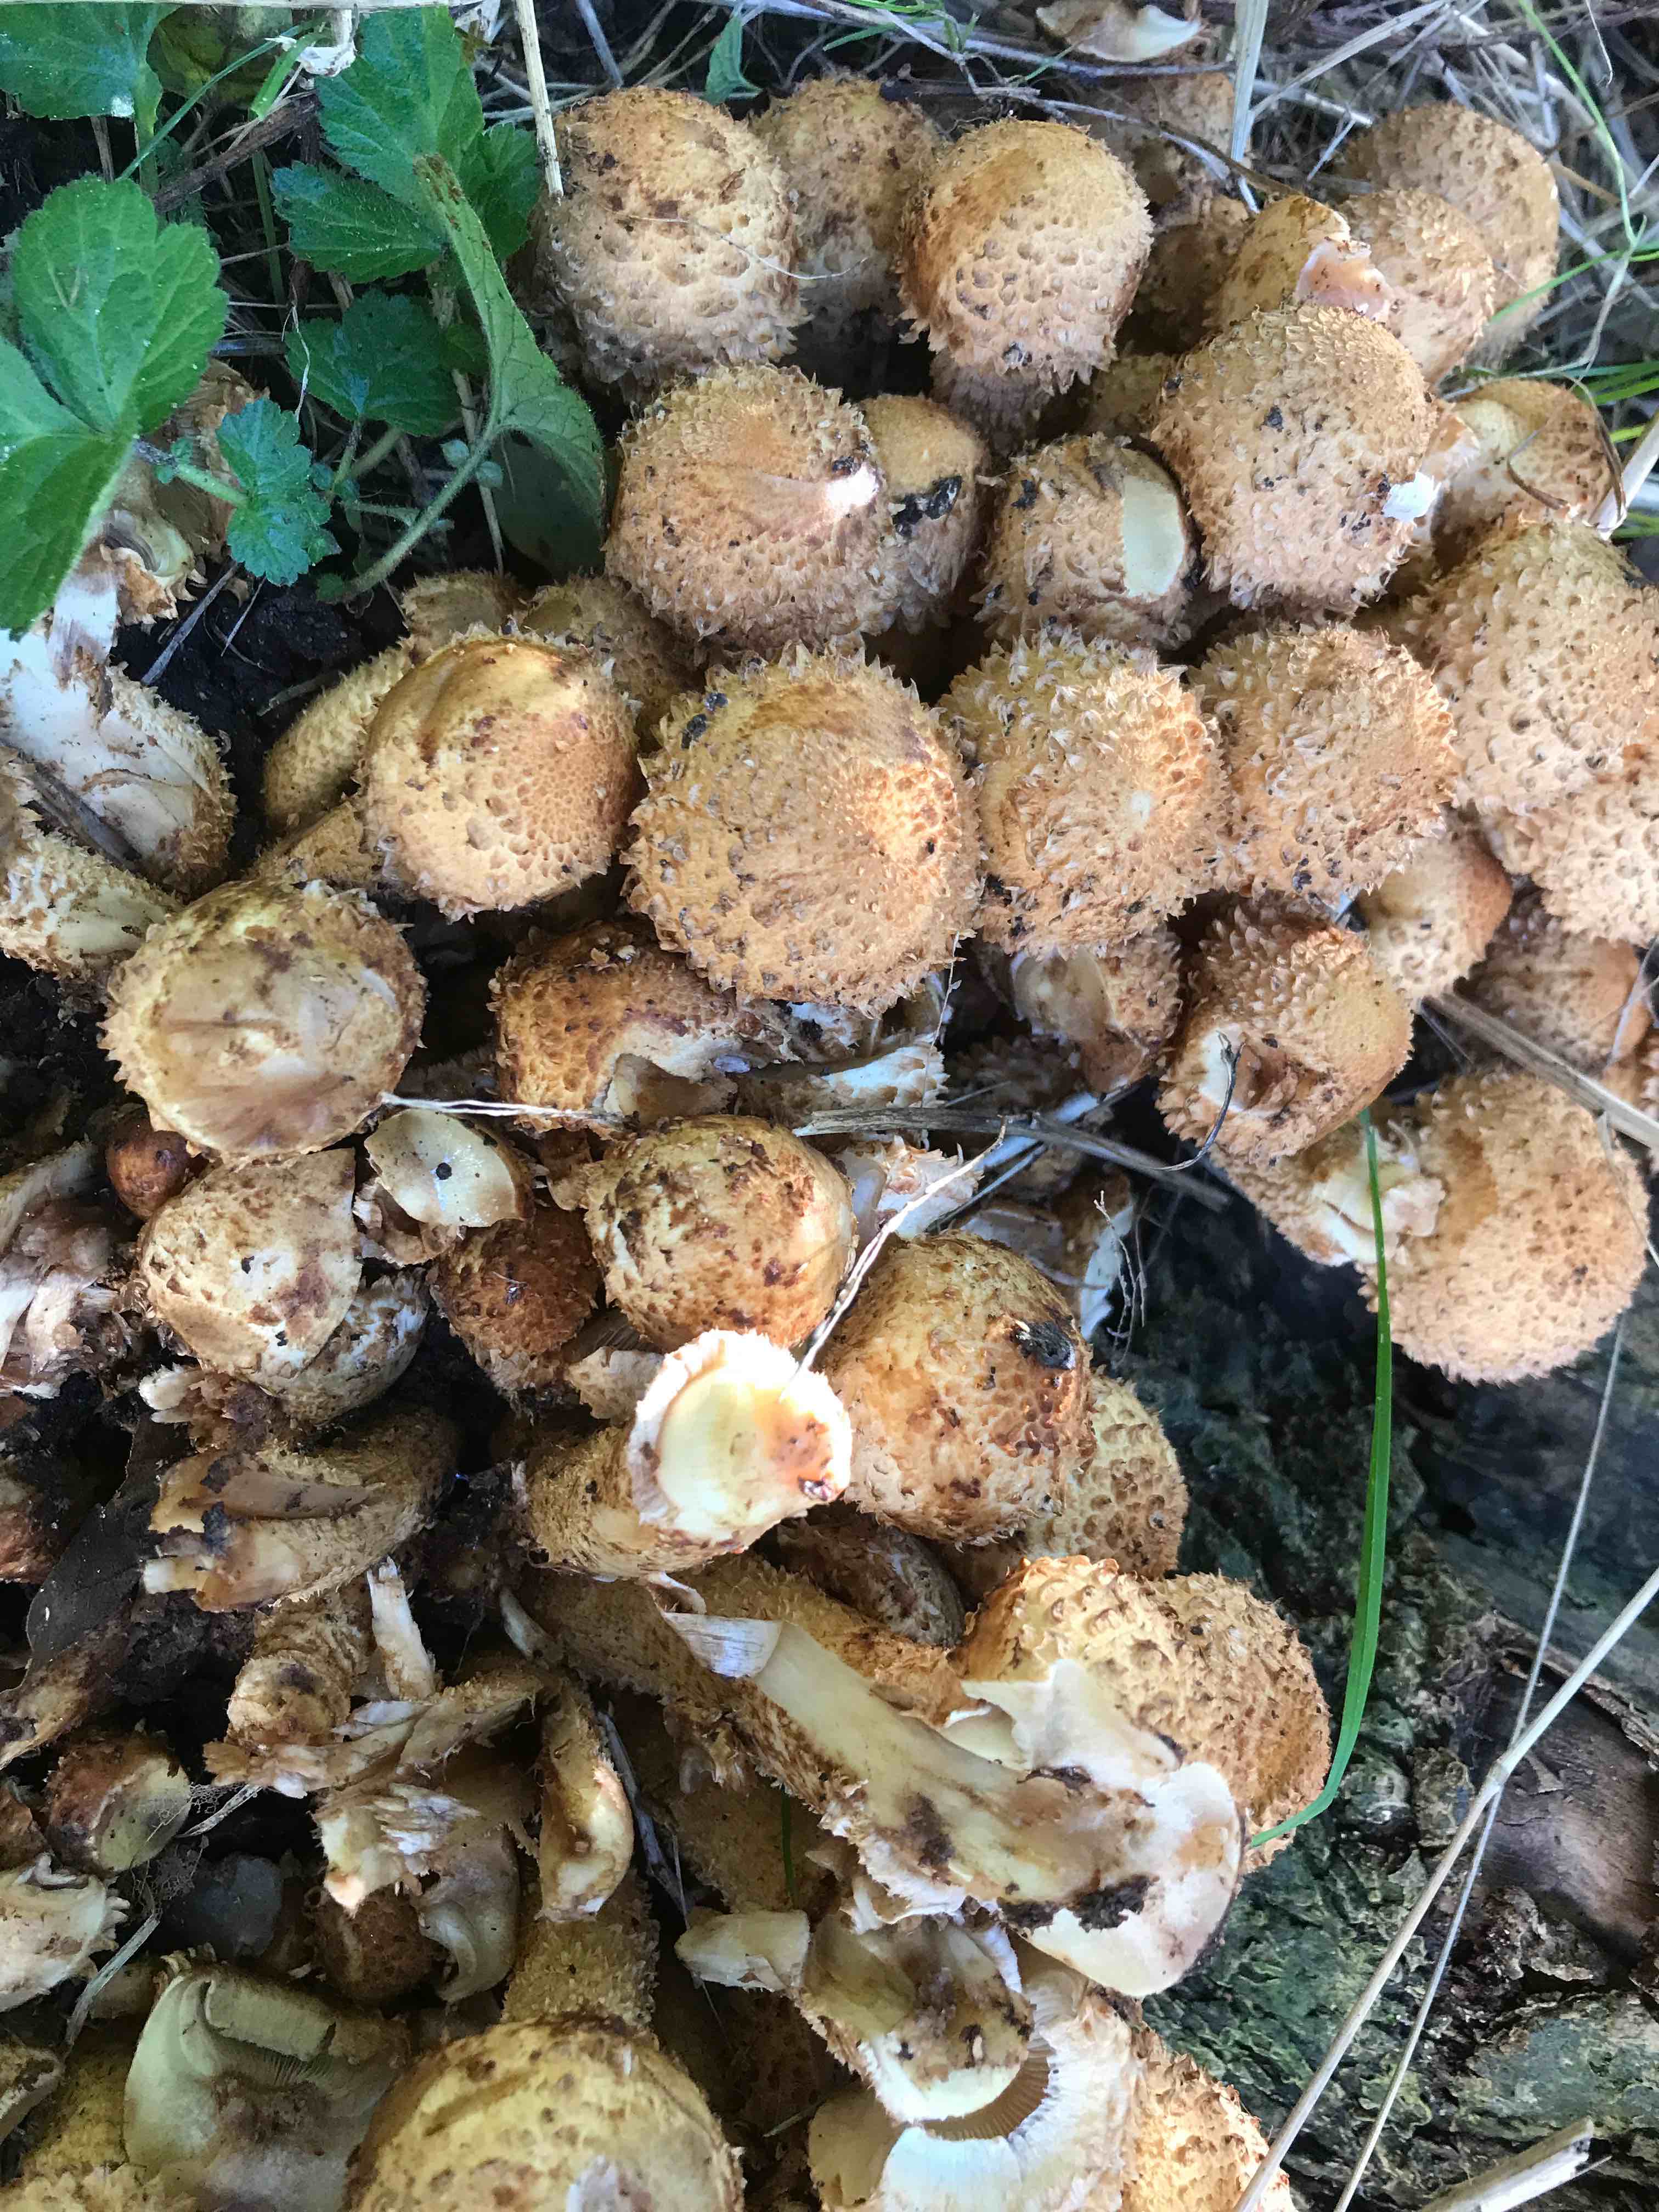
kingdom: Fungi
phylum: Basidiomycota
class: Agaricomycetes
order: Agaricales
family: Strophariaceae
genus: Pholiota
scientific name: Pholiota squarrosa
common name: krumskællet skælhat
